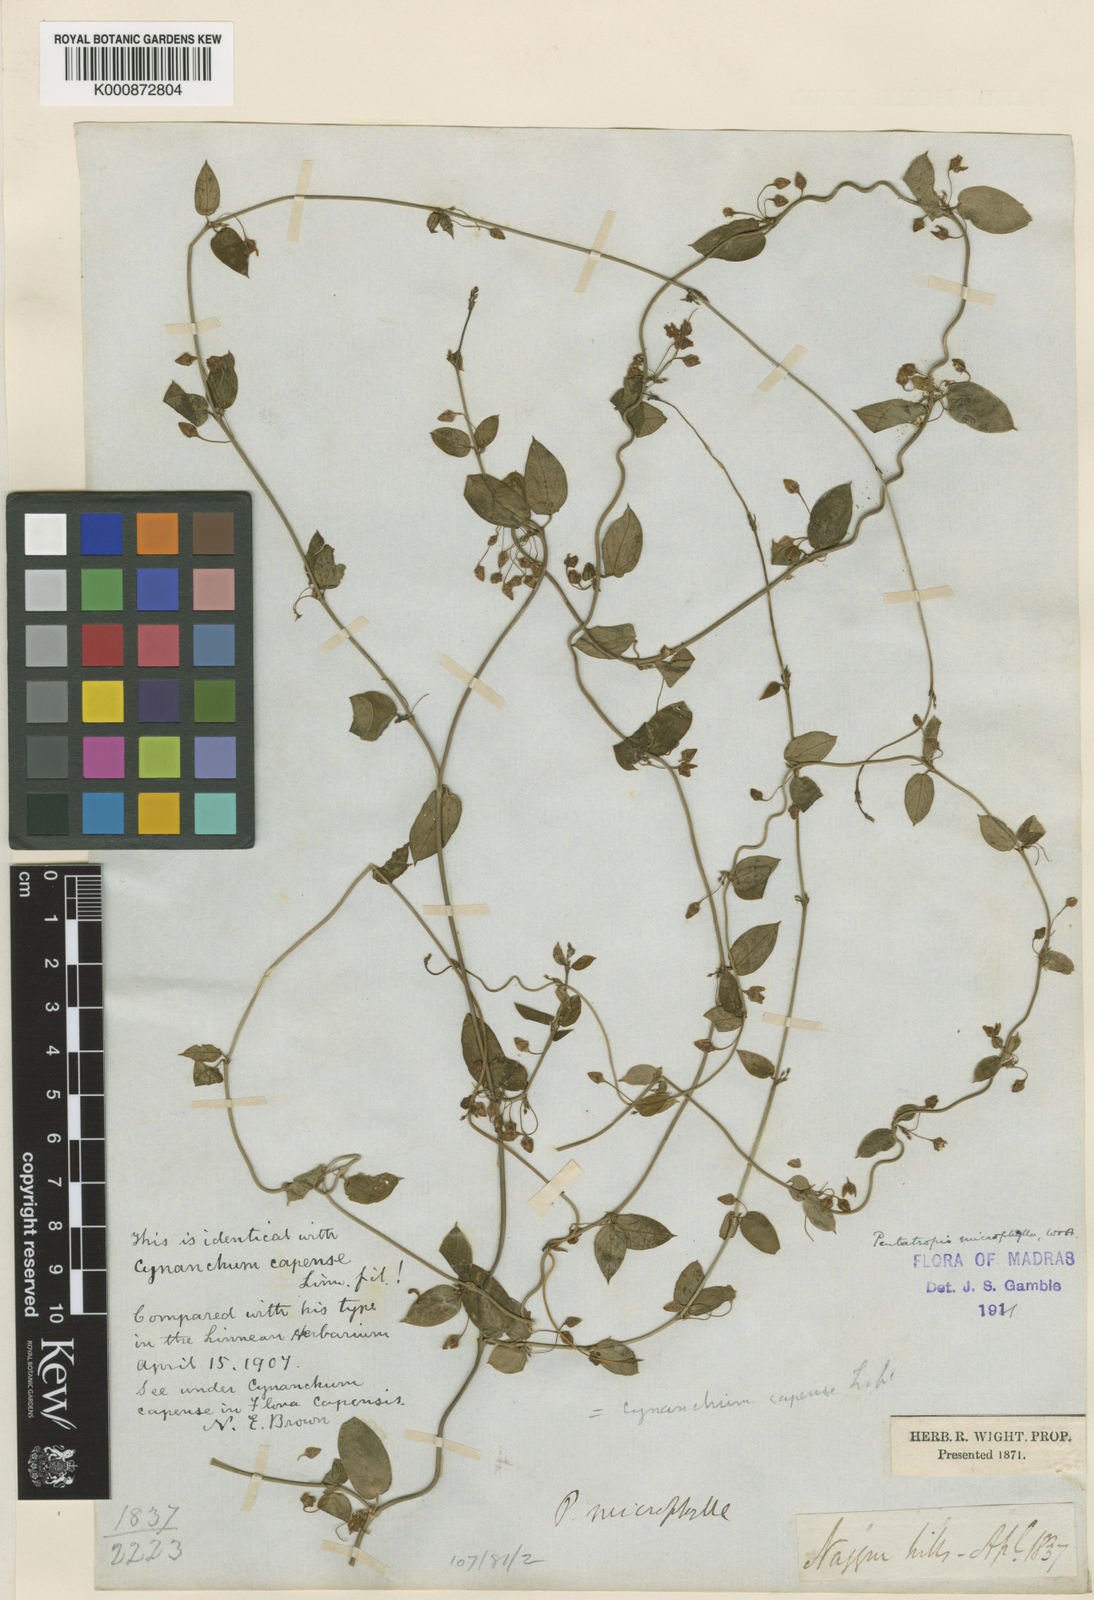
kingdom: Plantae
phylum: Tracheophyta
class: Magnoliopsida
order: Gentianales
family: Apocynaceae
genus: Pentatropis
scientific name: Pentatropis capensis
